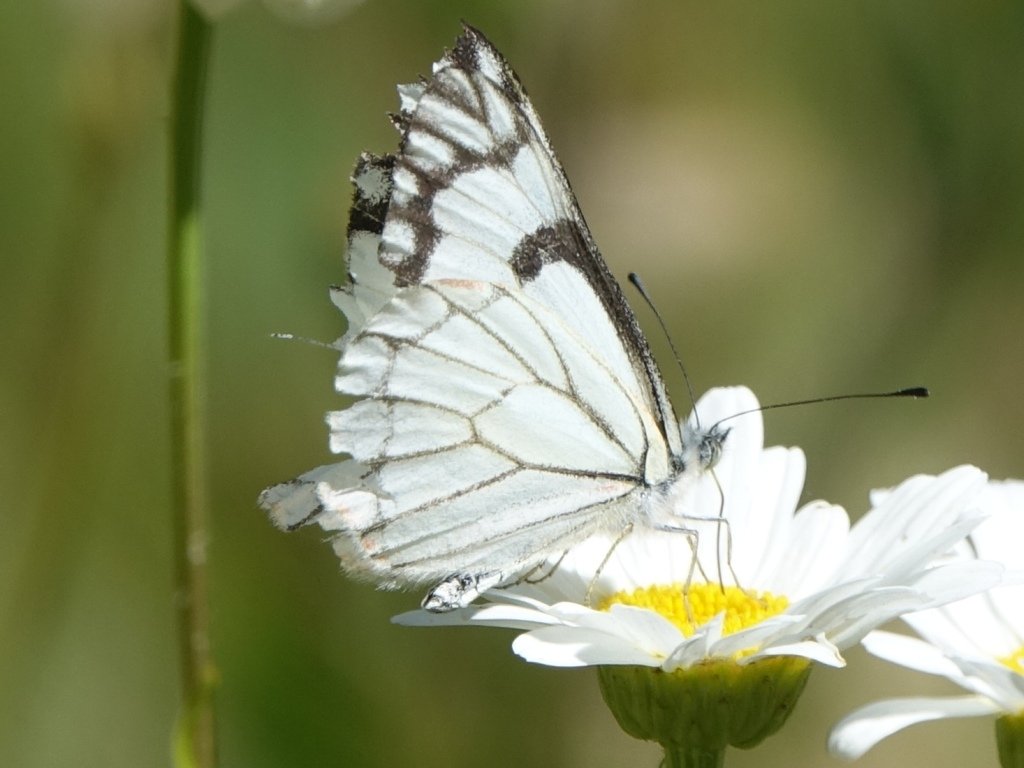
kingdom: Animalia
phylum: Arthropoda
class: Insecta
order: Lepidoptera
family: Pieridae
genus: Neophasia
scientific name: Neophasia menapia
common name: Pine White
